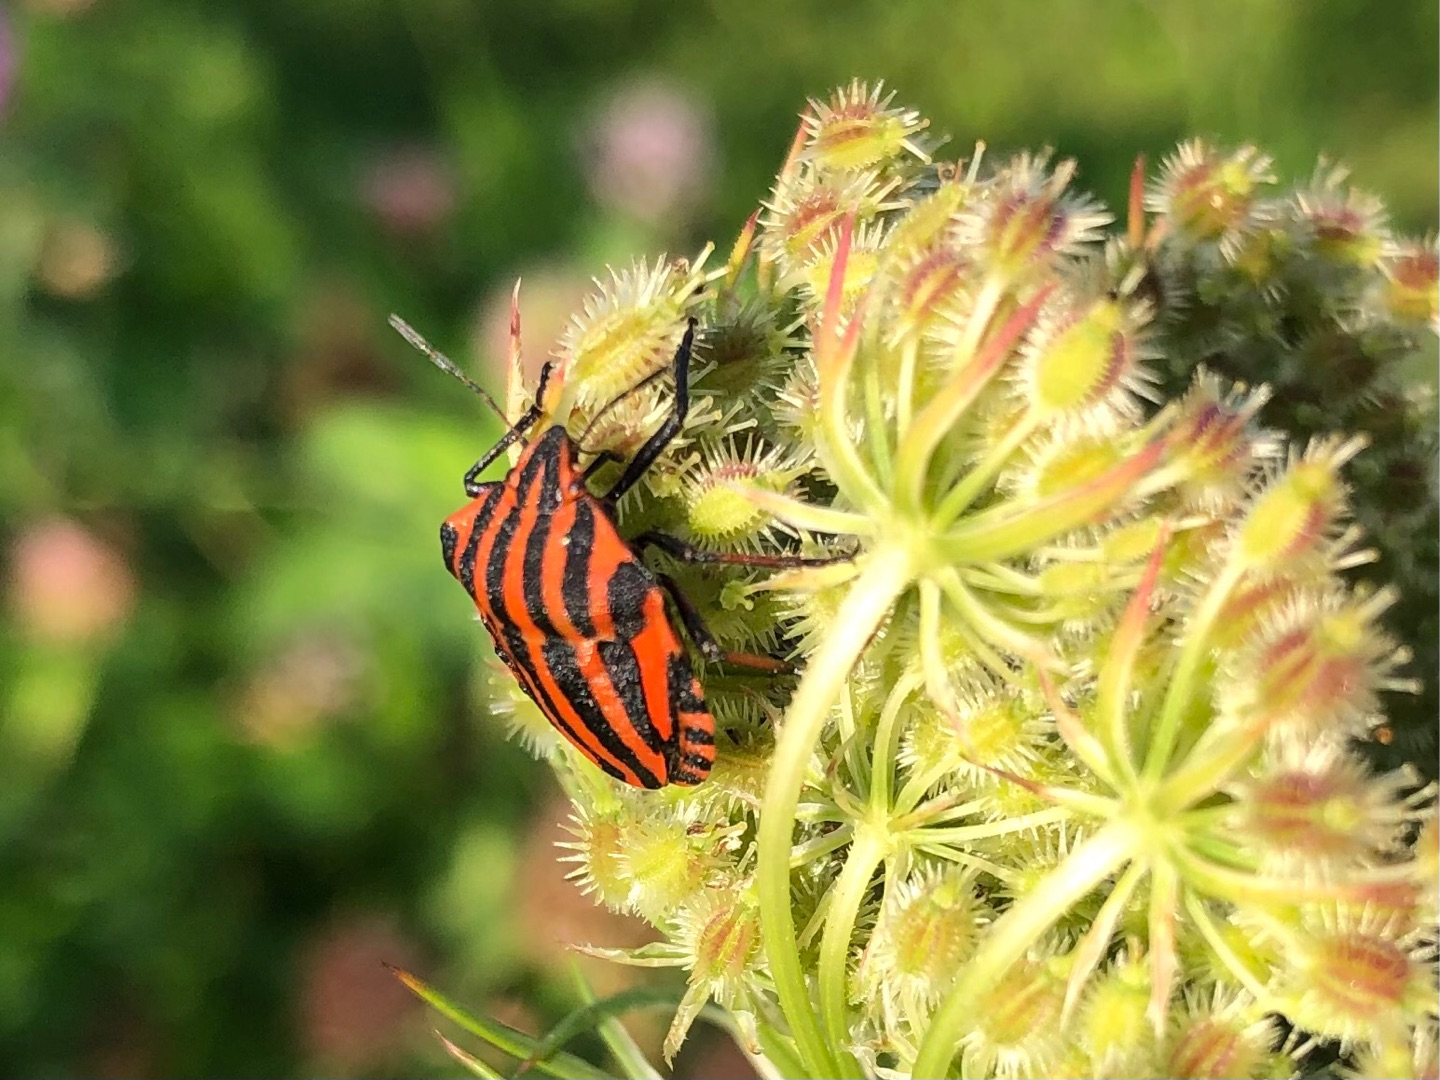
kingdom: Animalia
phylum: Arthropoda
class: Insecta
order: Hemiptera
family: Pentatomidae
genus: Graphosoma
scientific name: Graphosoma italicum
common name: Stribetæge
